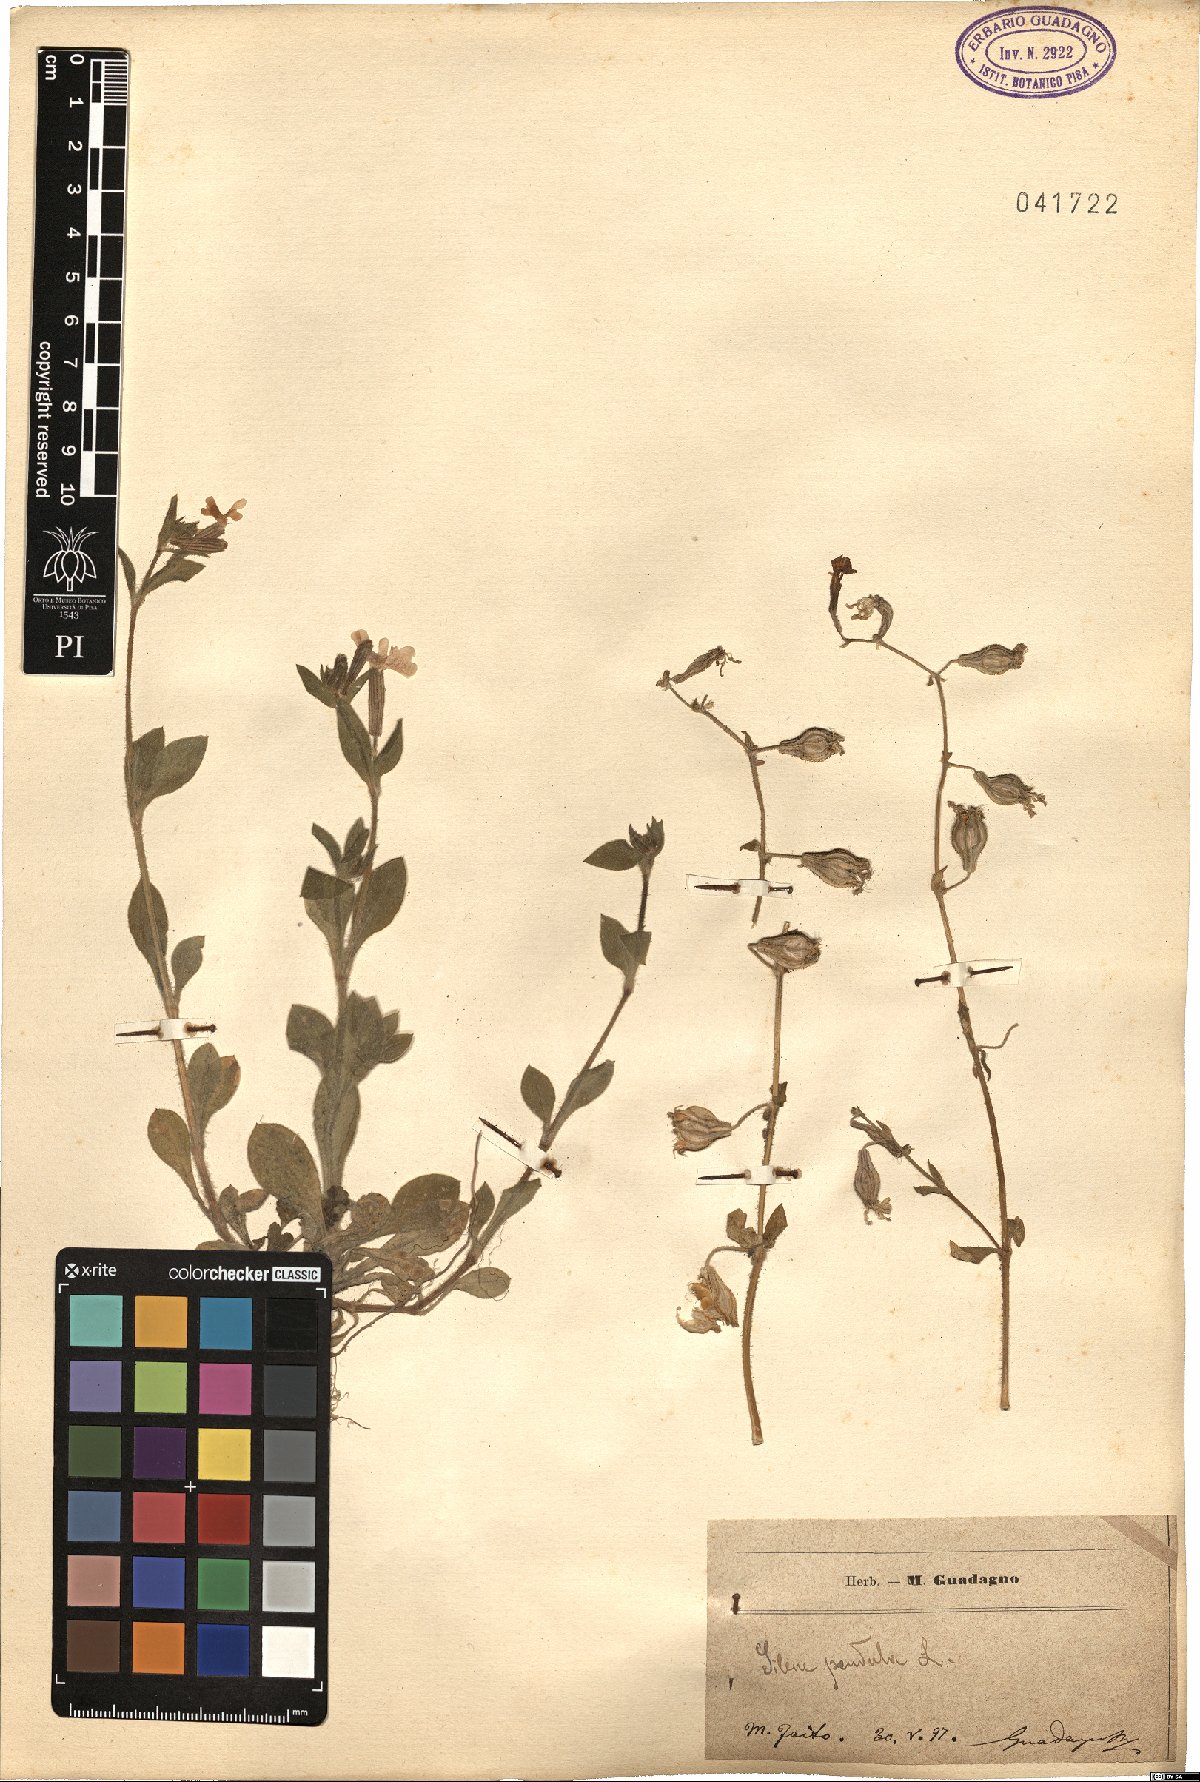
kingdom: Plantae
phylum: Tracheophyta
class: Magnoliopsida
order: Caryophyllales
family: Caryophyllaceae
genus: Silene
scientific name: Silene pendula
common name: Nodding catchfly
